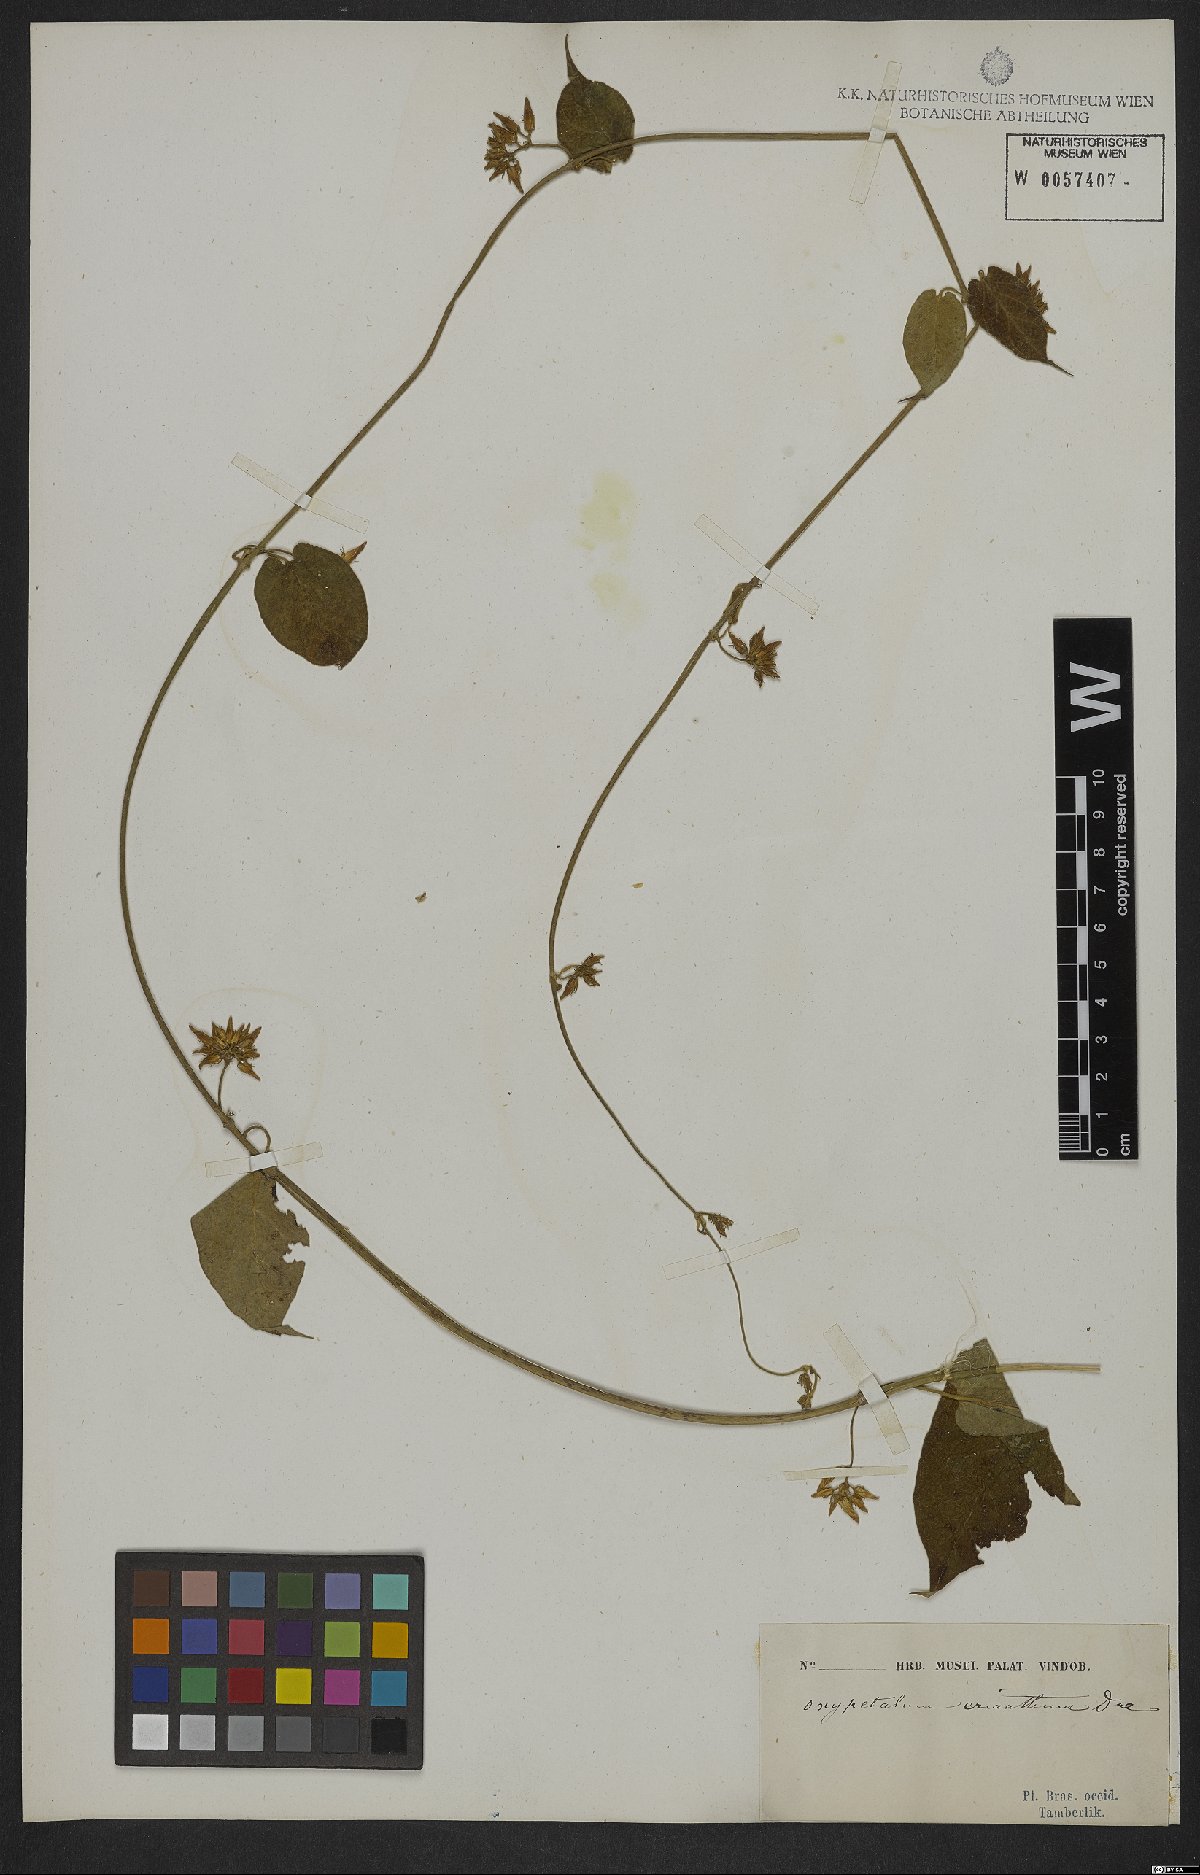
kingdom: Plantae
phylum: Tracheophyta
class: Magnoliopsida
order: Gentianales
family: Apocynaceae
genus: Oxypetalum
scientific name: Oxypetalum erianthum
